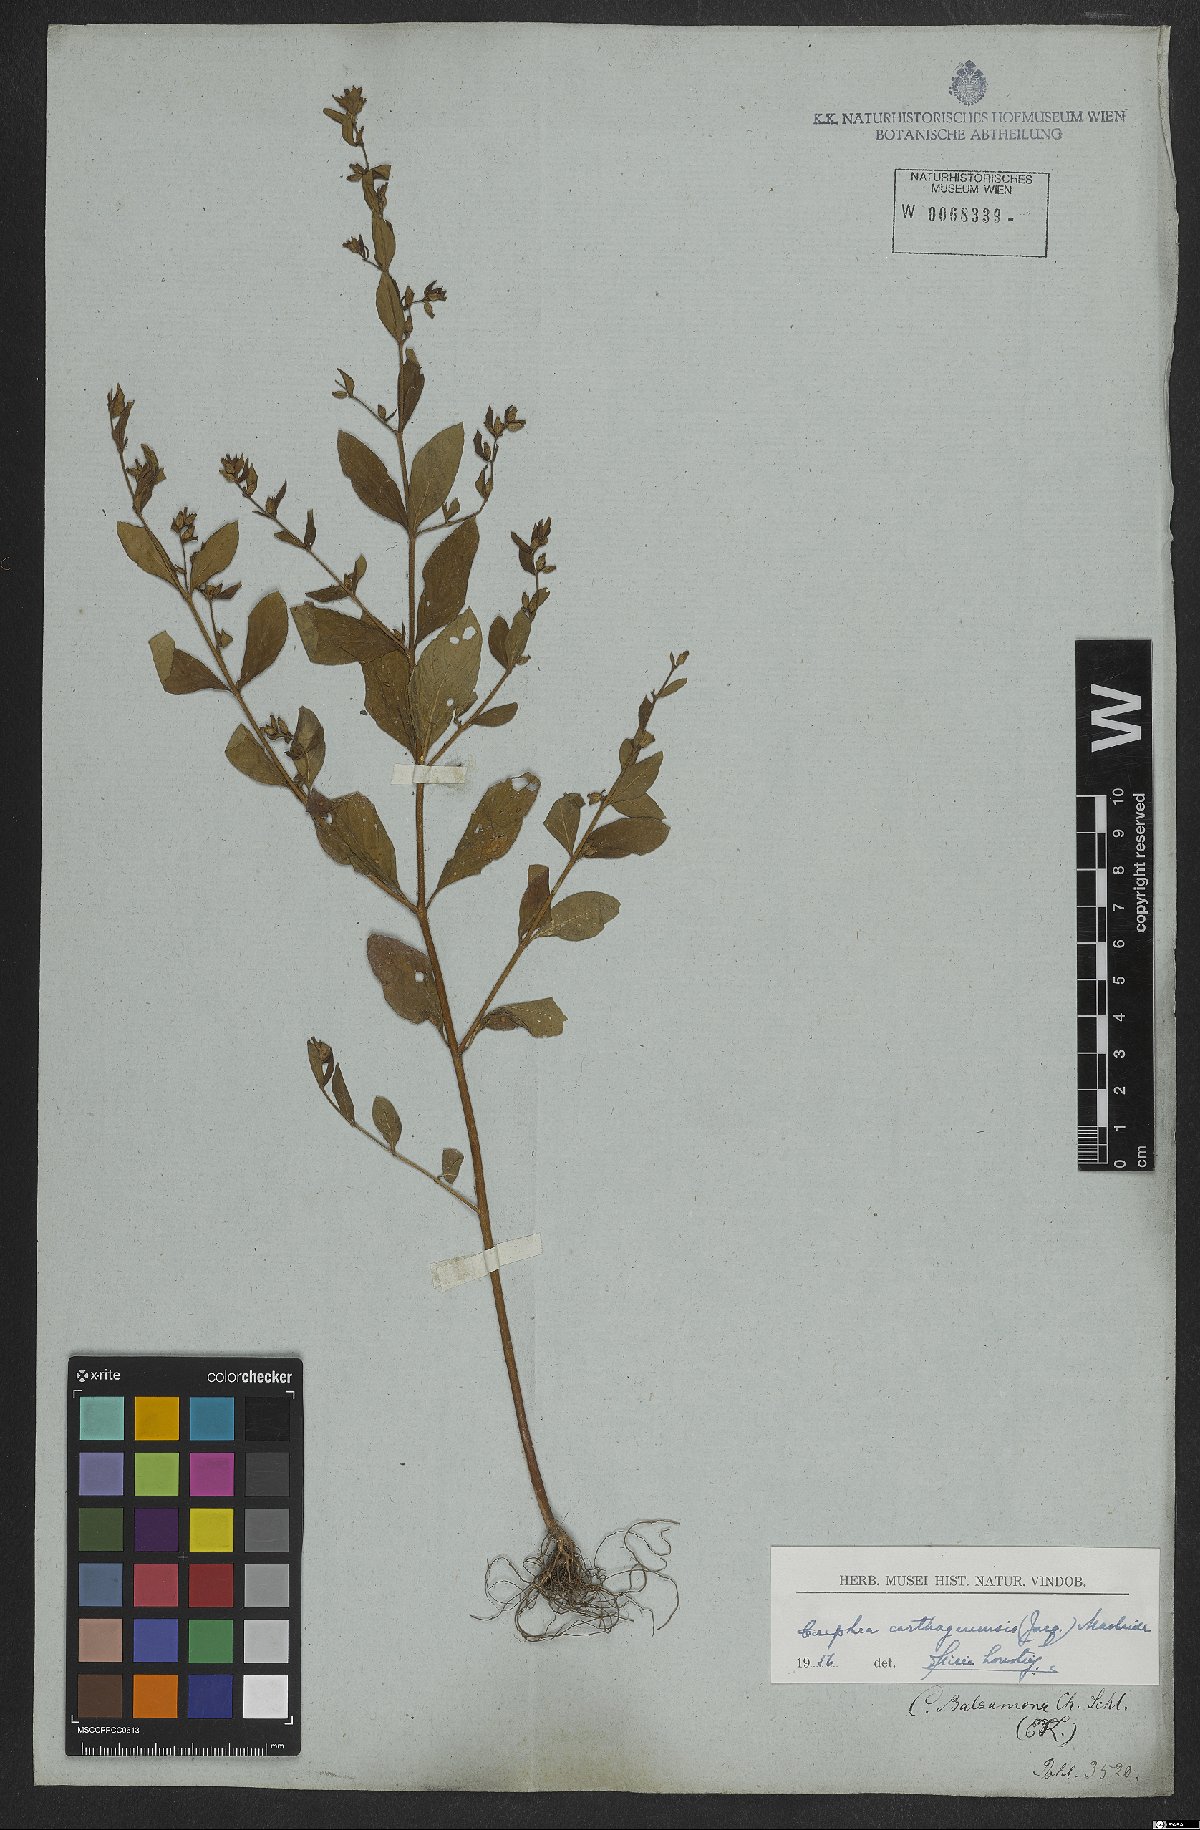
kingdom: Plantae
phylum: Tracheophyta
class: Magnoliopsida
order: Myrtales
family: Lythraceae
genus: Cuphea
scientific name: Cuphea carthagenensis
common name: Colombian waxweed
